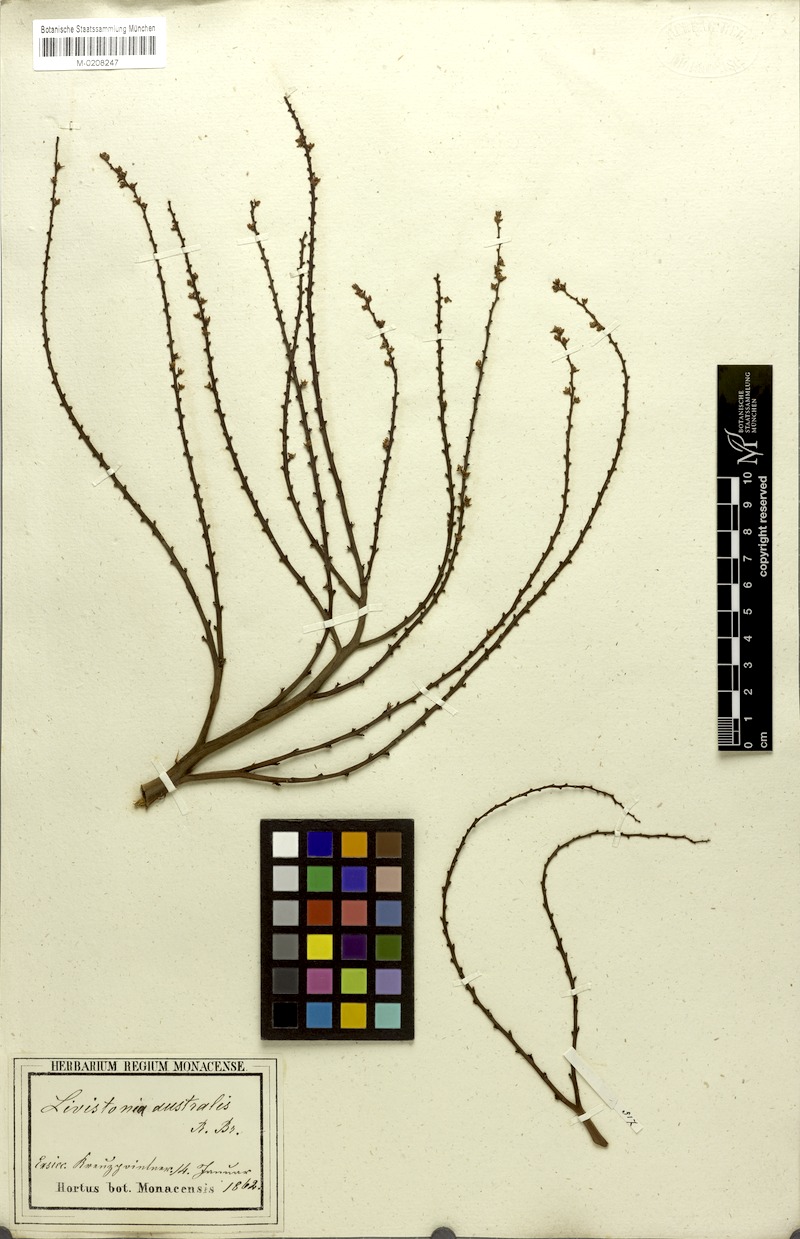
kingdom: Plantae
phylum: Tracheophyta
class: Liliopsida
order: Arecales
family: Arecaceae
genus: Livistona
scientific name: Livistona australis
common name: Cabbage fan palm
